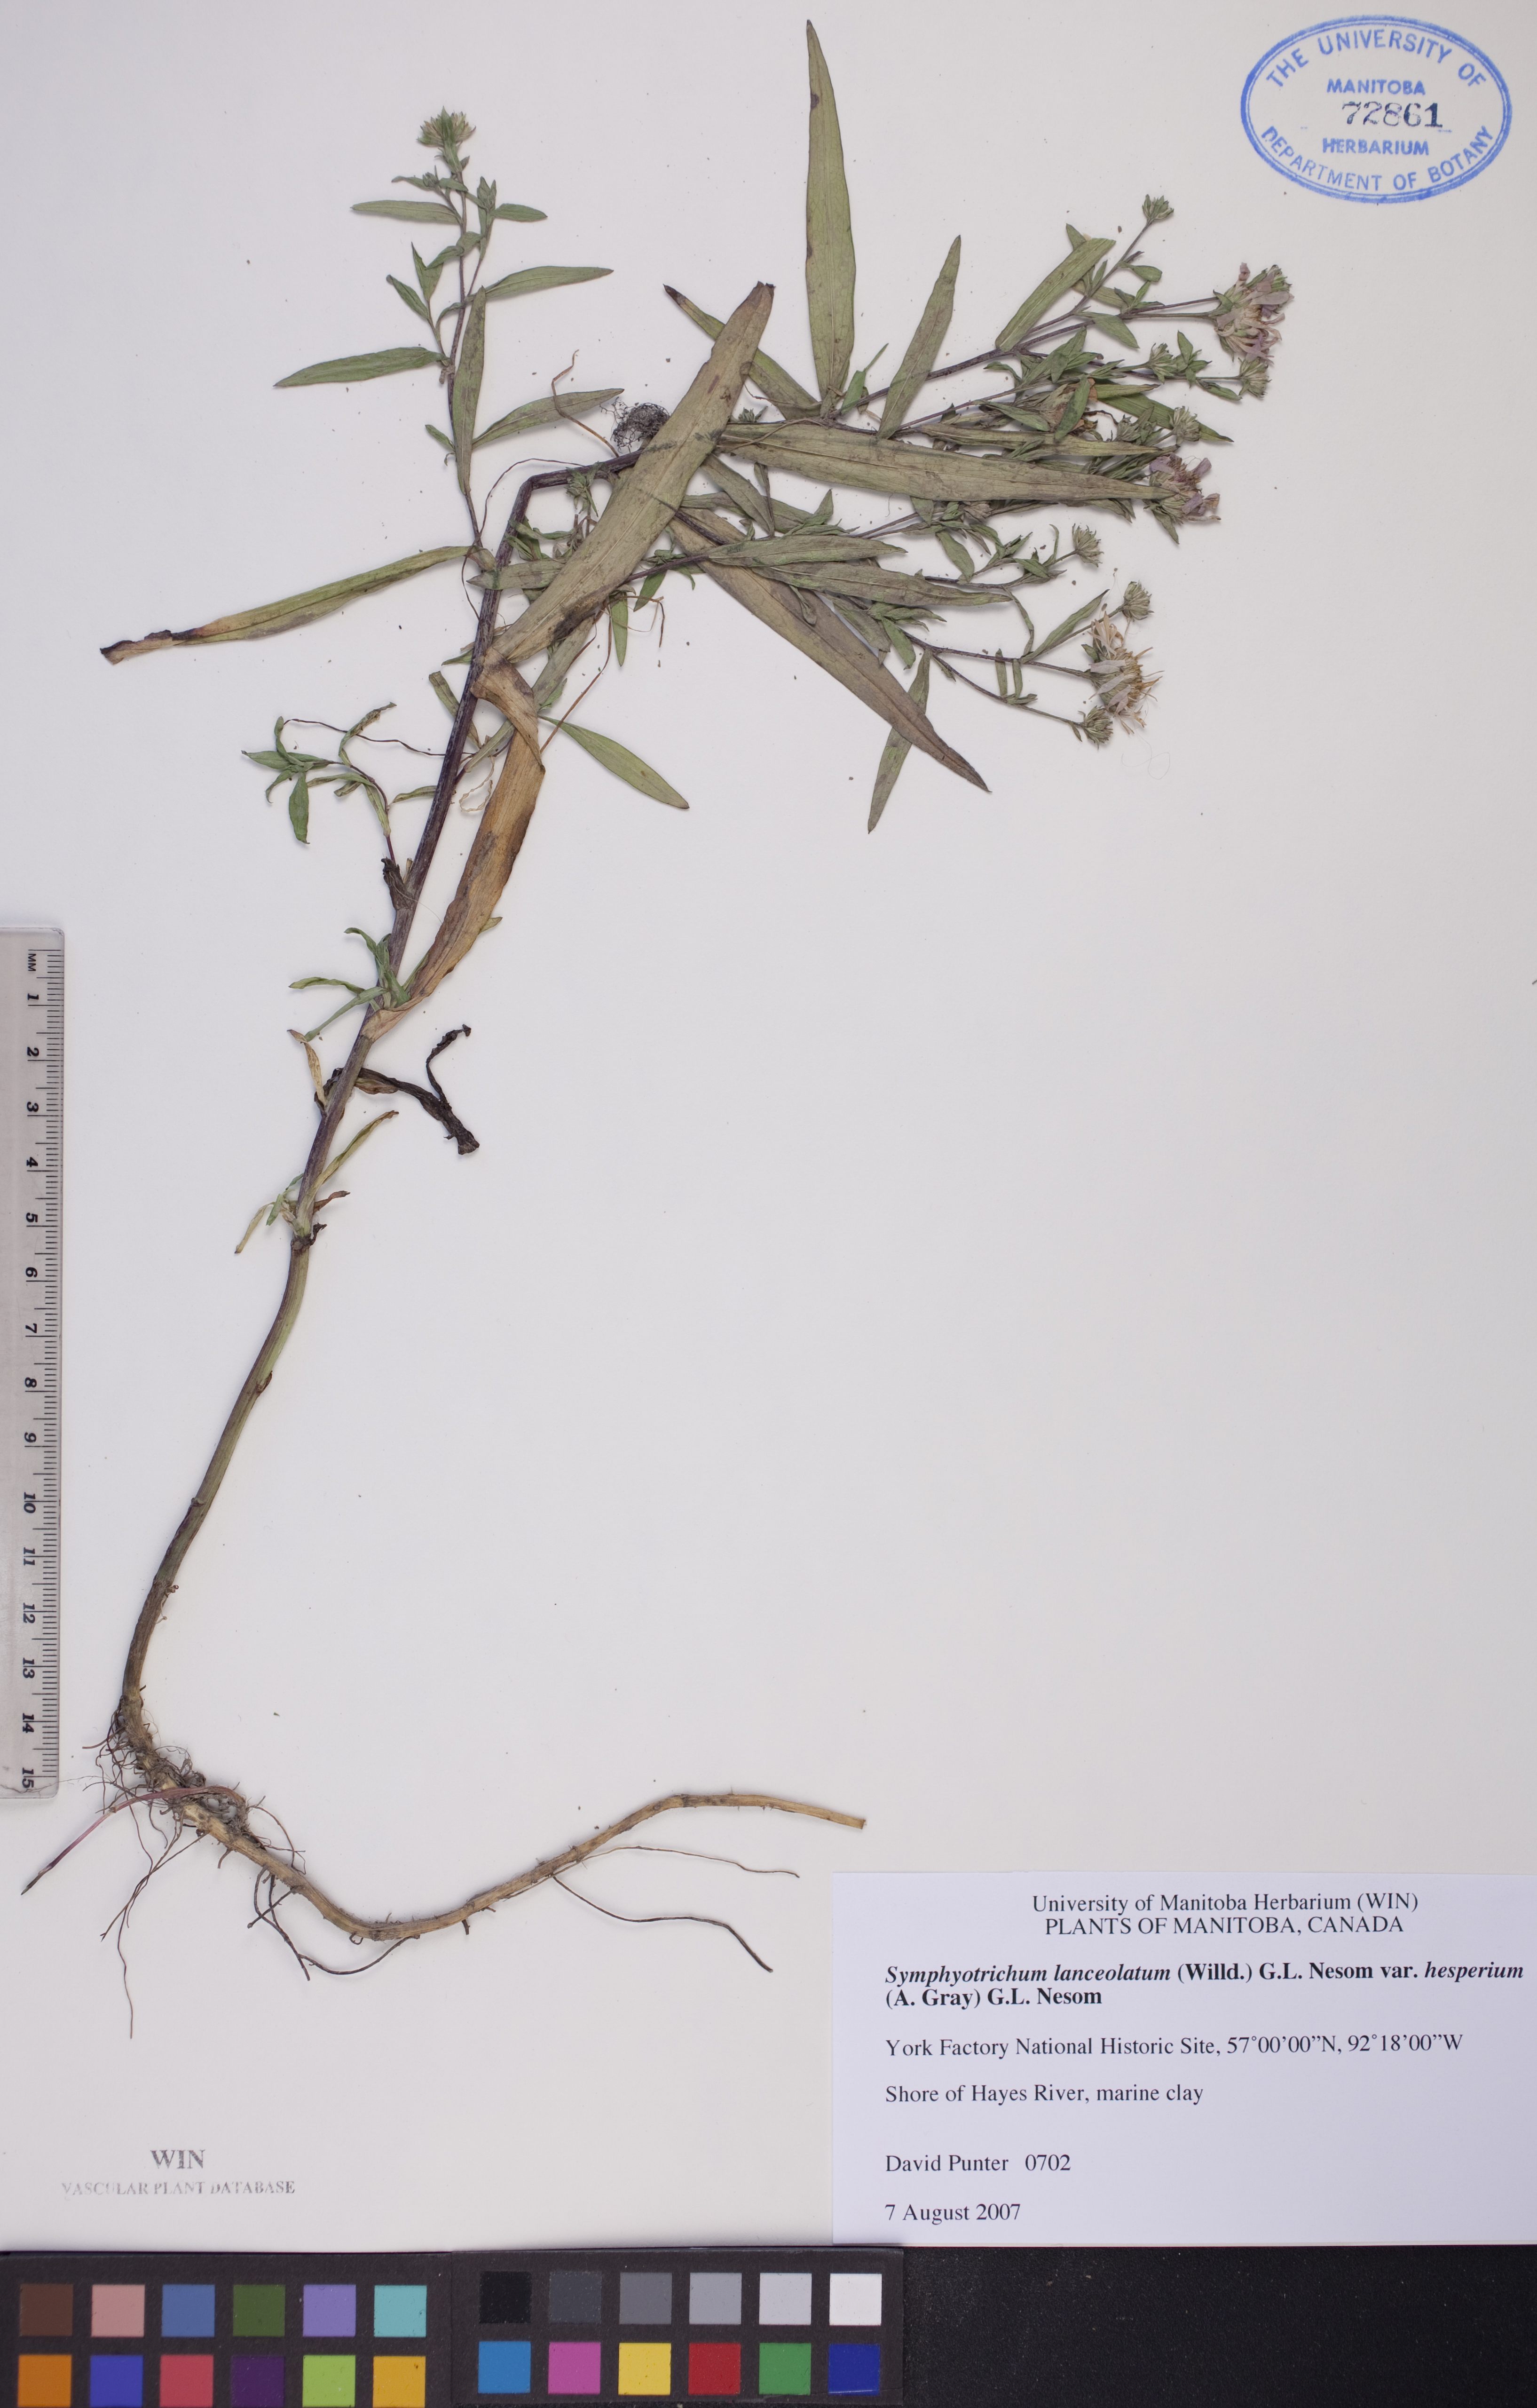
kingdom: Plantae
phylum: Tracheophyta
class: Magnoliopsida
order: Asterales
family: Asteraceae
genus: Symphyotrichum
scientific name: Symphyotrichum lanceolatum
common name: Panicled aster
